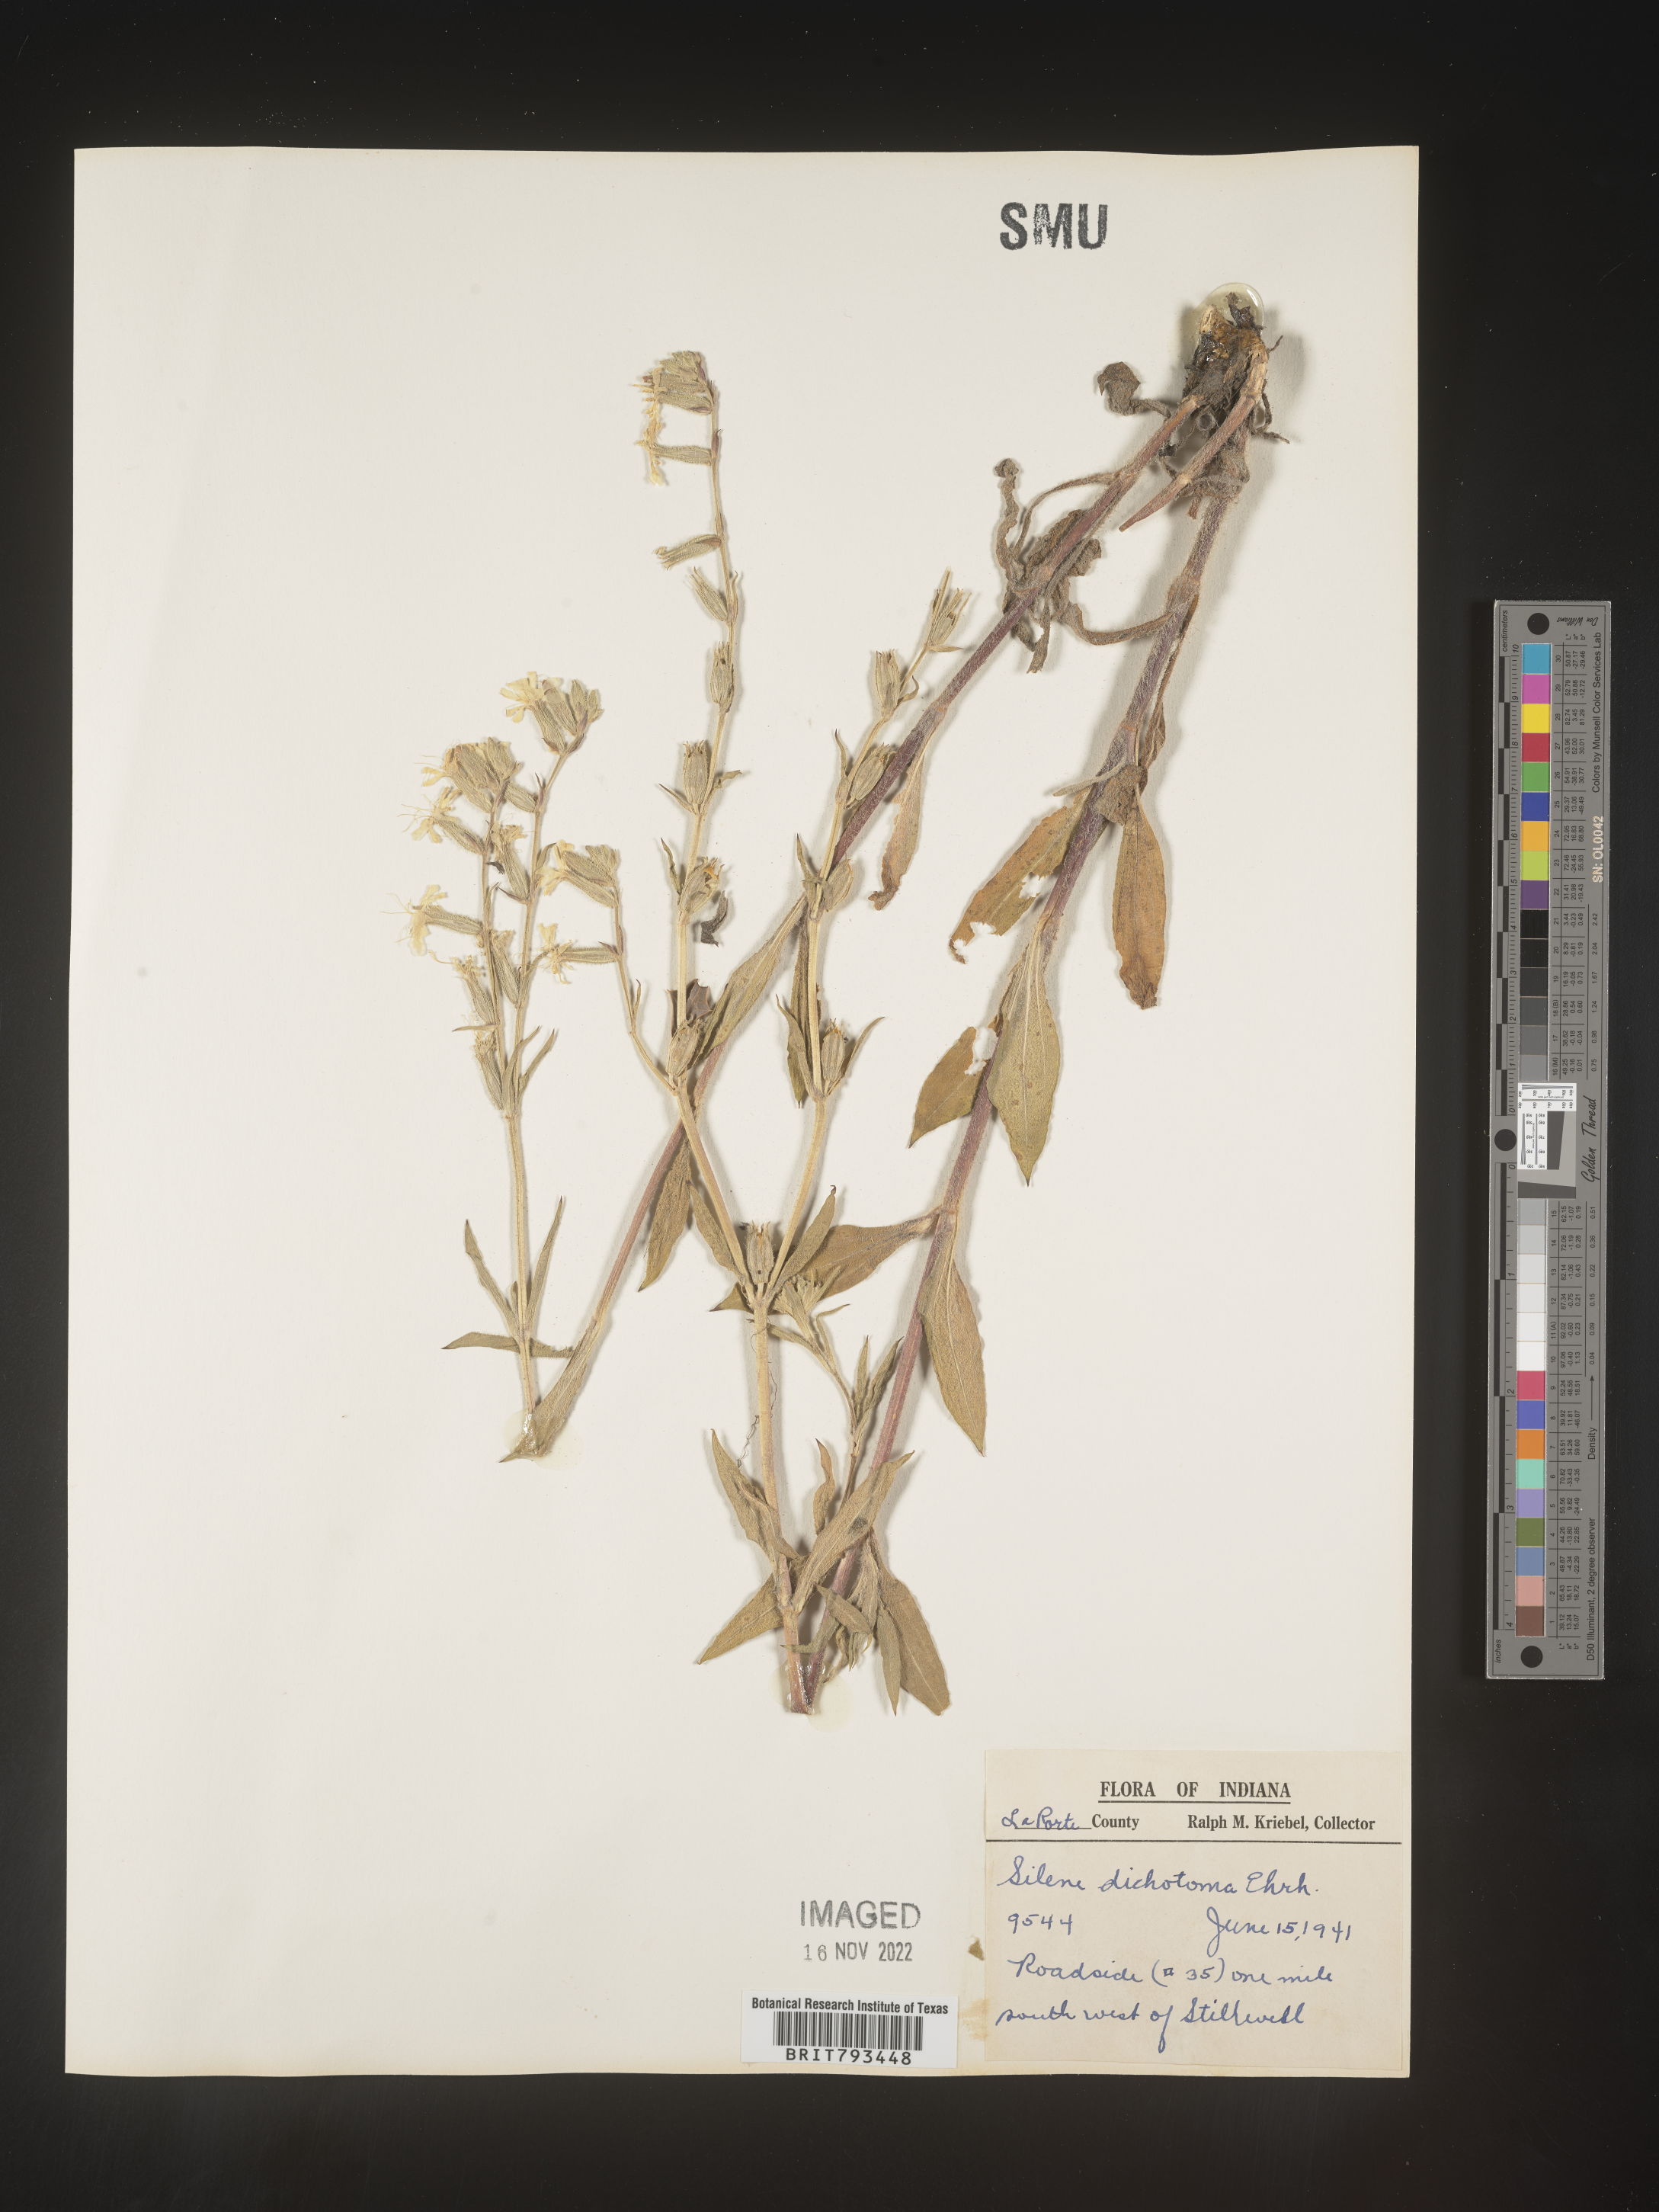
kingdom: Plantae
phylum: Tracheophyta
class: Magnoliopsida
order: Caryophyllales
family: Caryophyllaceae
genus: Silene
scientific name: Silene dichotoma
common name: Forked catchfly
